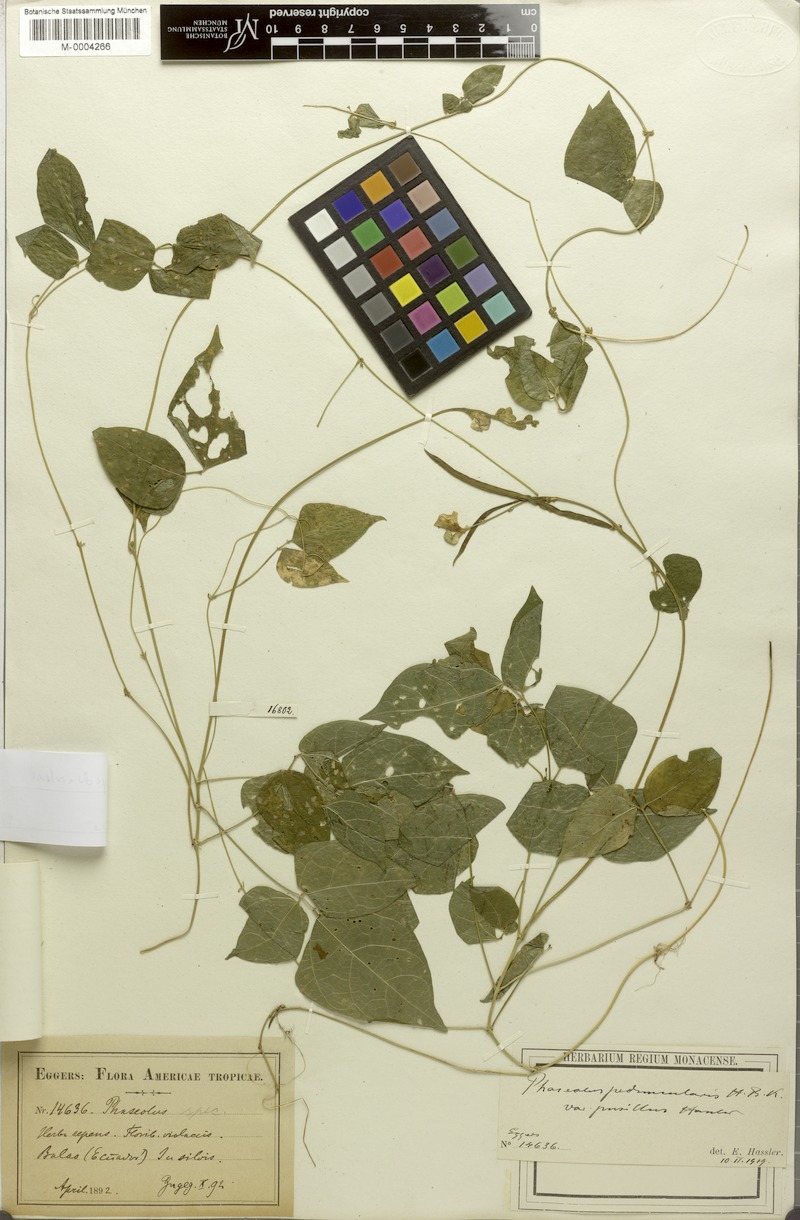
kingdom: Plantae
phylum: Tracheophyta
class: Magnoliopsida
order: Fabales
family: Fabaceae
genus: Ancistrotropis
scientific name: Ancistrotropis peduncularis
